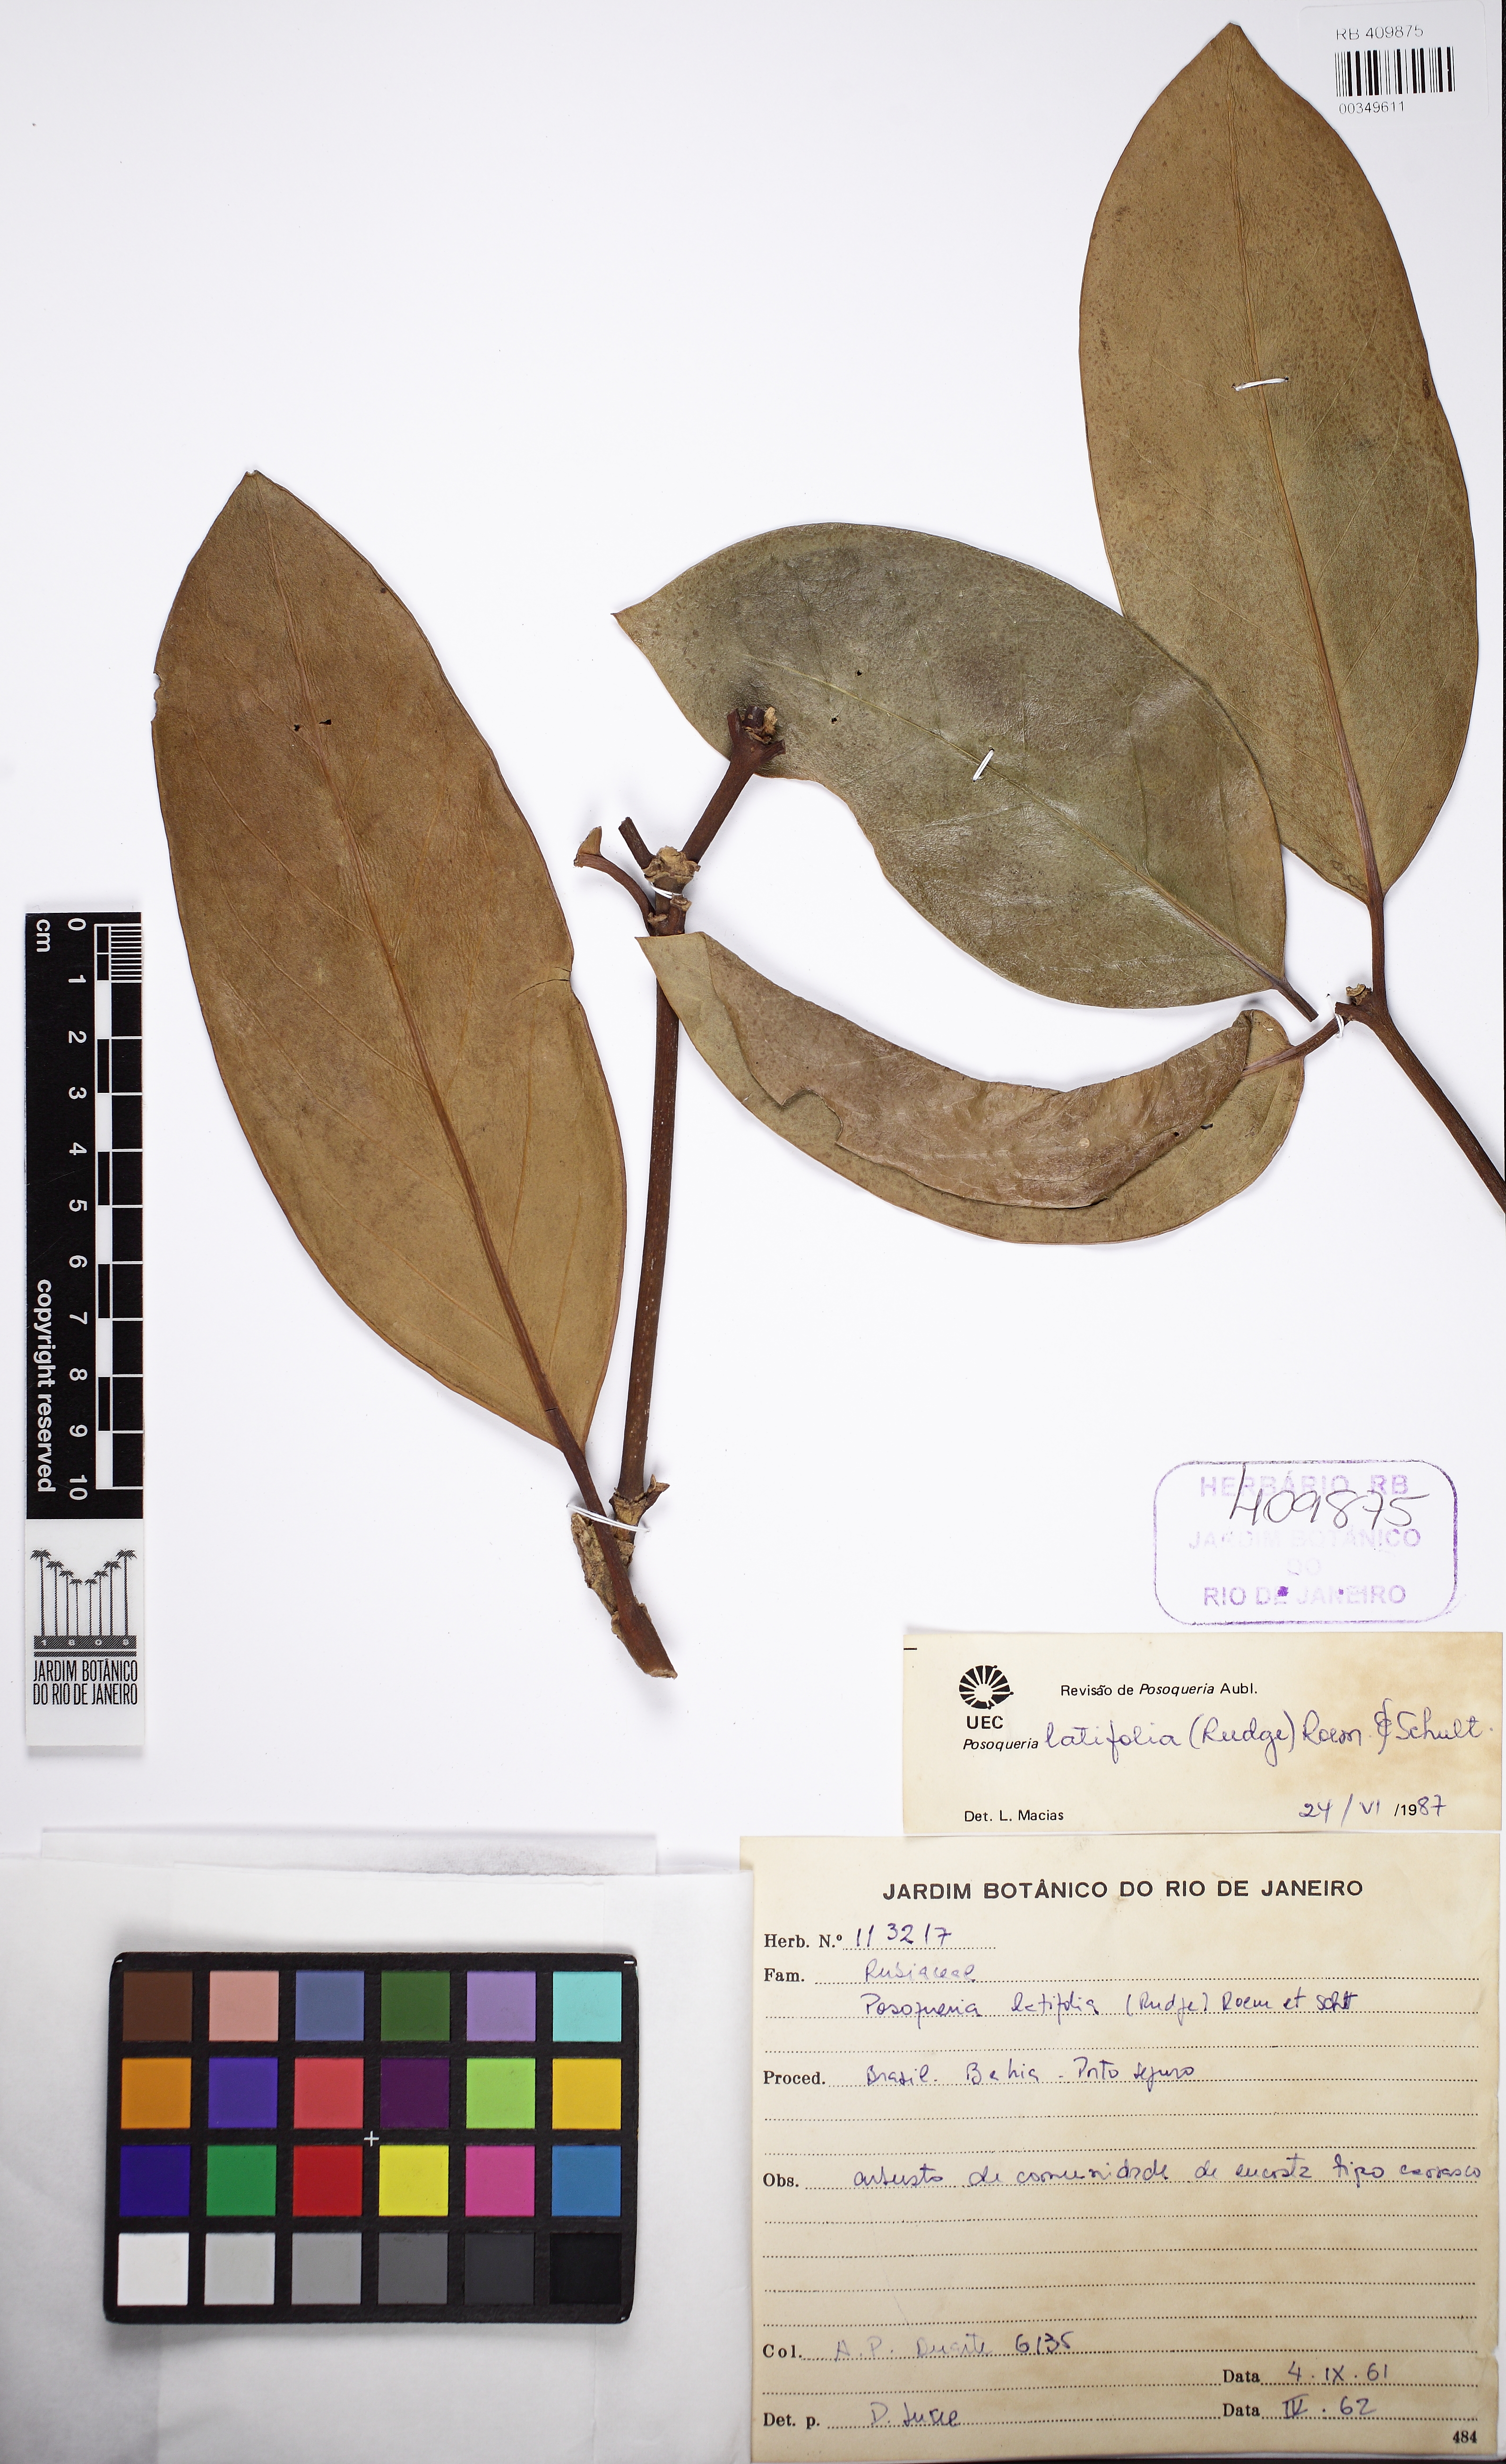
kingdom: Plantae
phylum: Tracheophyta
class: Magnoliopsida
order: Gentianales
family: Rubiaceae
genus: Posoqueria
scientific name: Posoqueria latifolia
